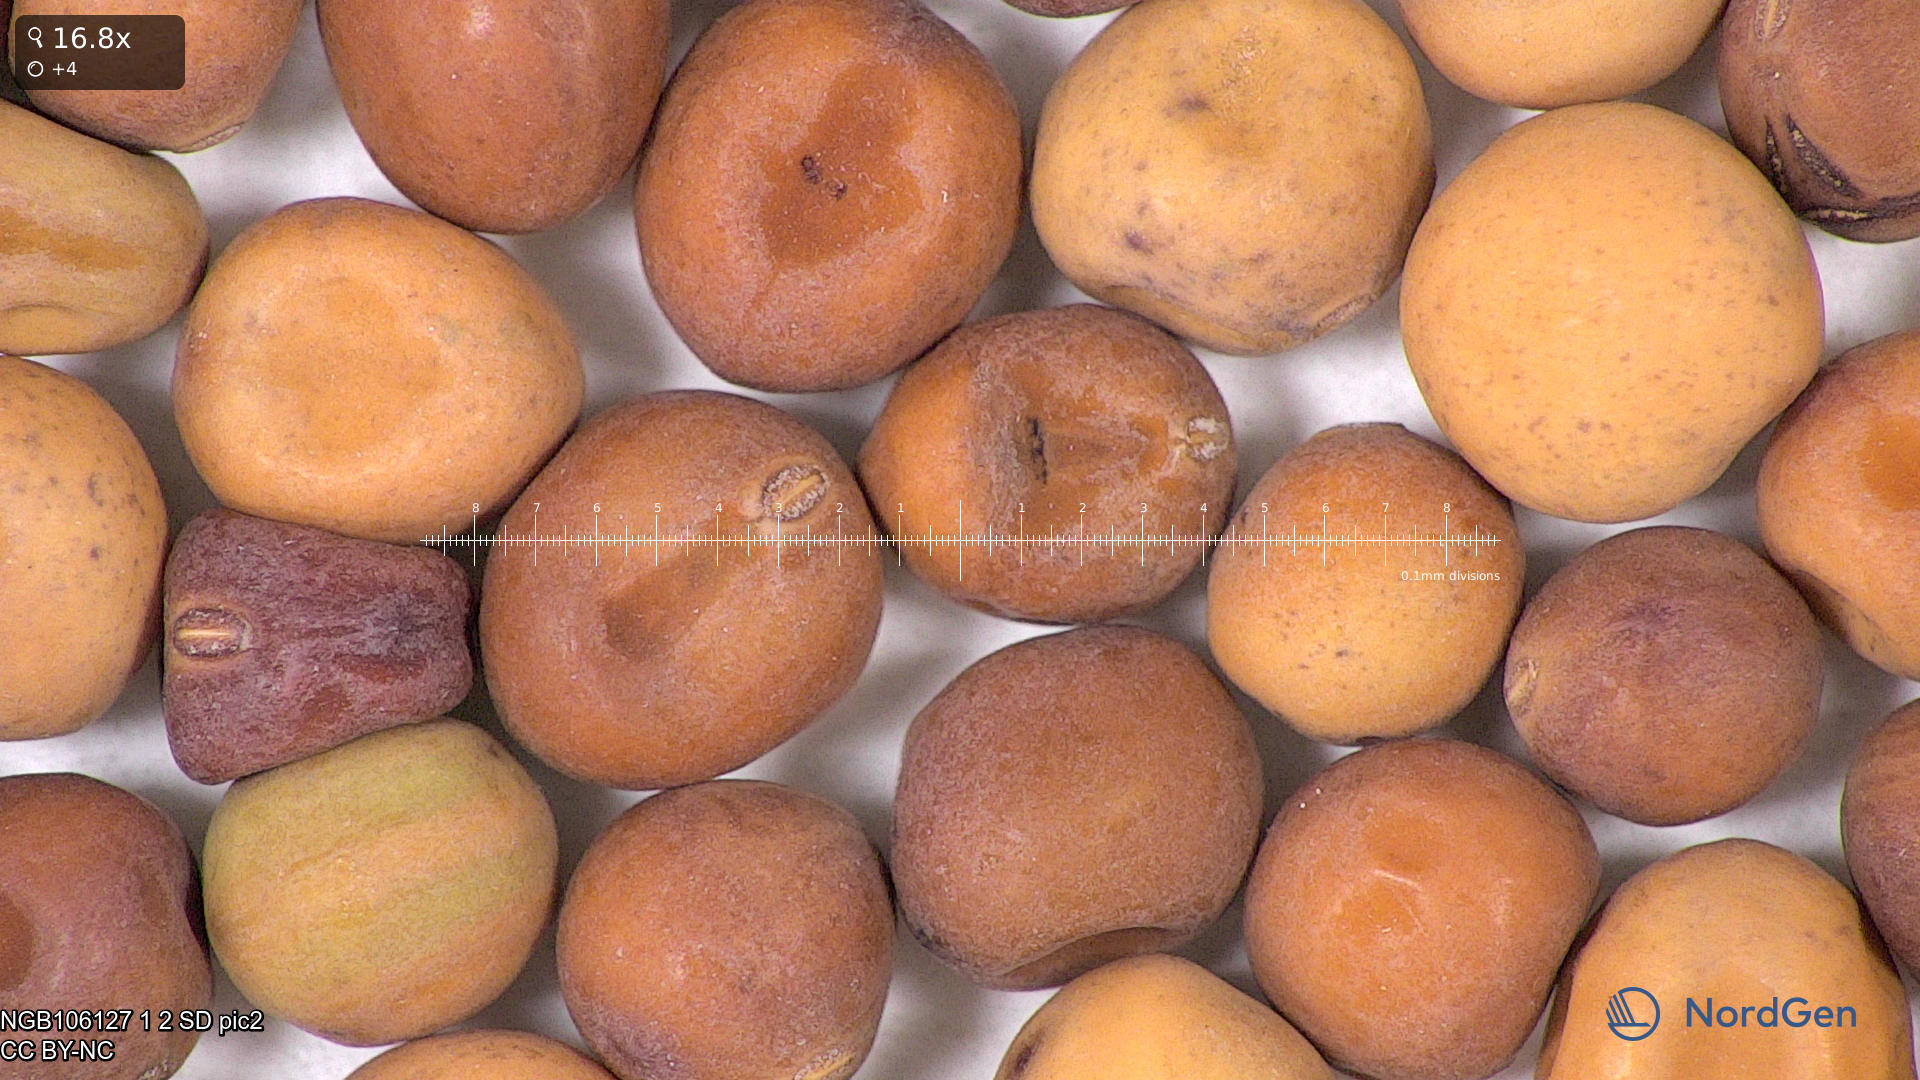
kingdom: Plantae
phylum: Tracheophyta
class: Magnoliopsida
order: Fabales
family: Fabaceae
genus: Lathyrus
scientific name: Lathyrus oleraceus
